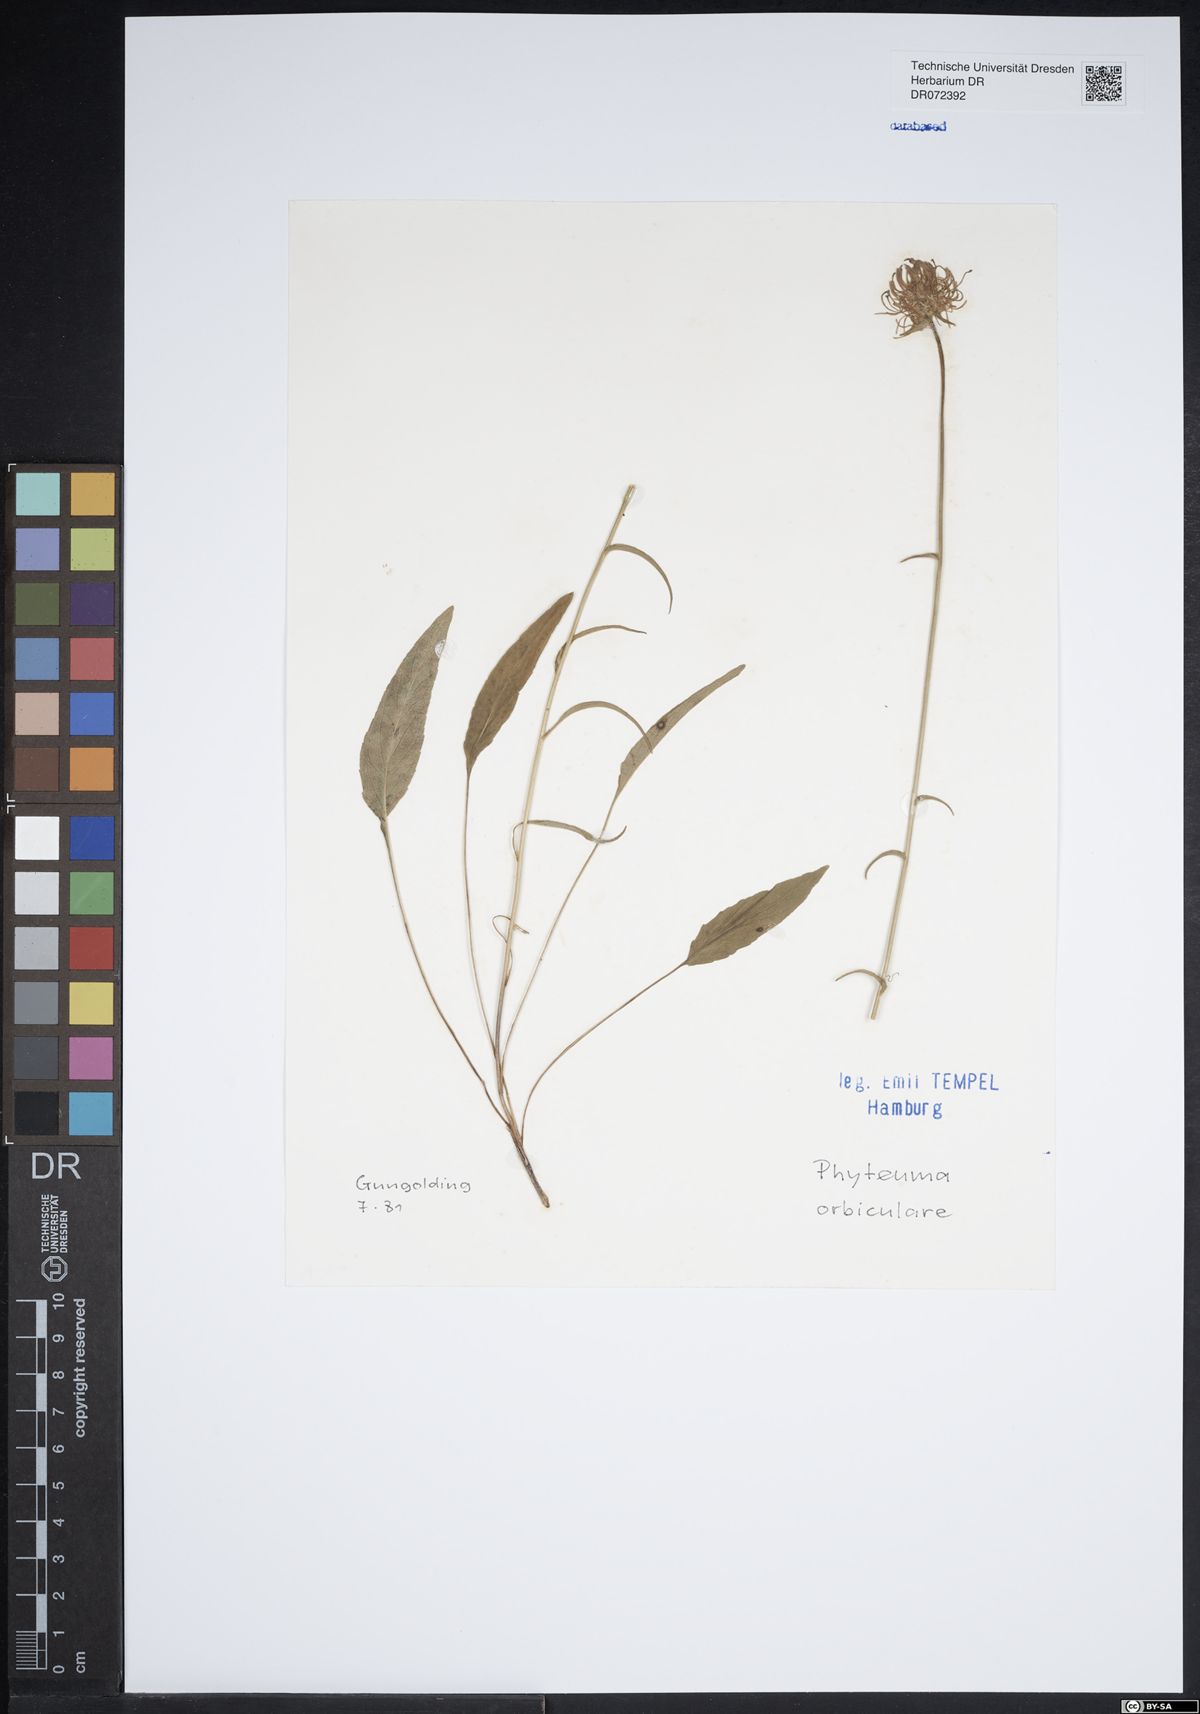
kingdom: Plantae
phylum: Tracheophyta
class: Magnoliopsida
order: Asterales
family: Campanulaceae
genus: Phyteuma
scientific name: Phyteuma orbiculare
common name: Round-headed rampion
